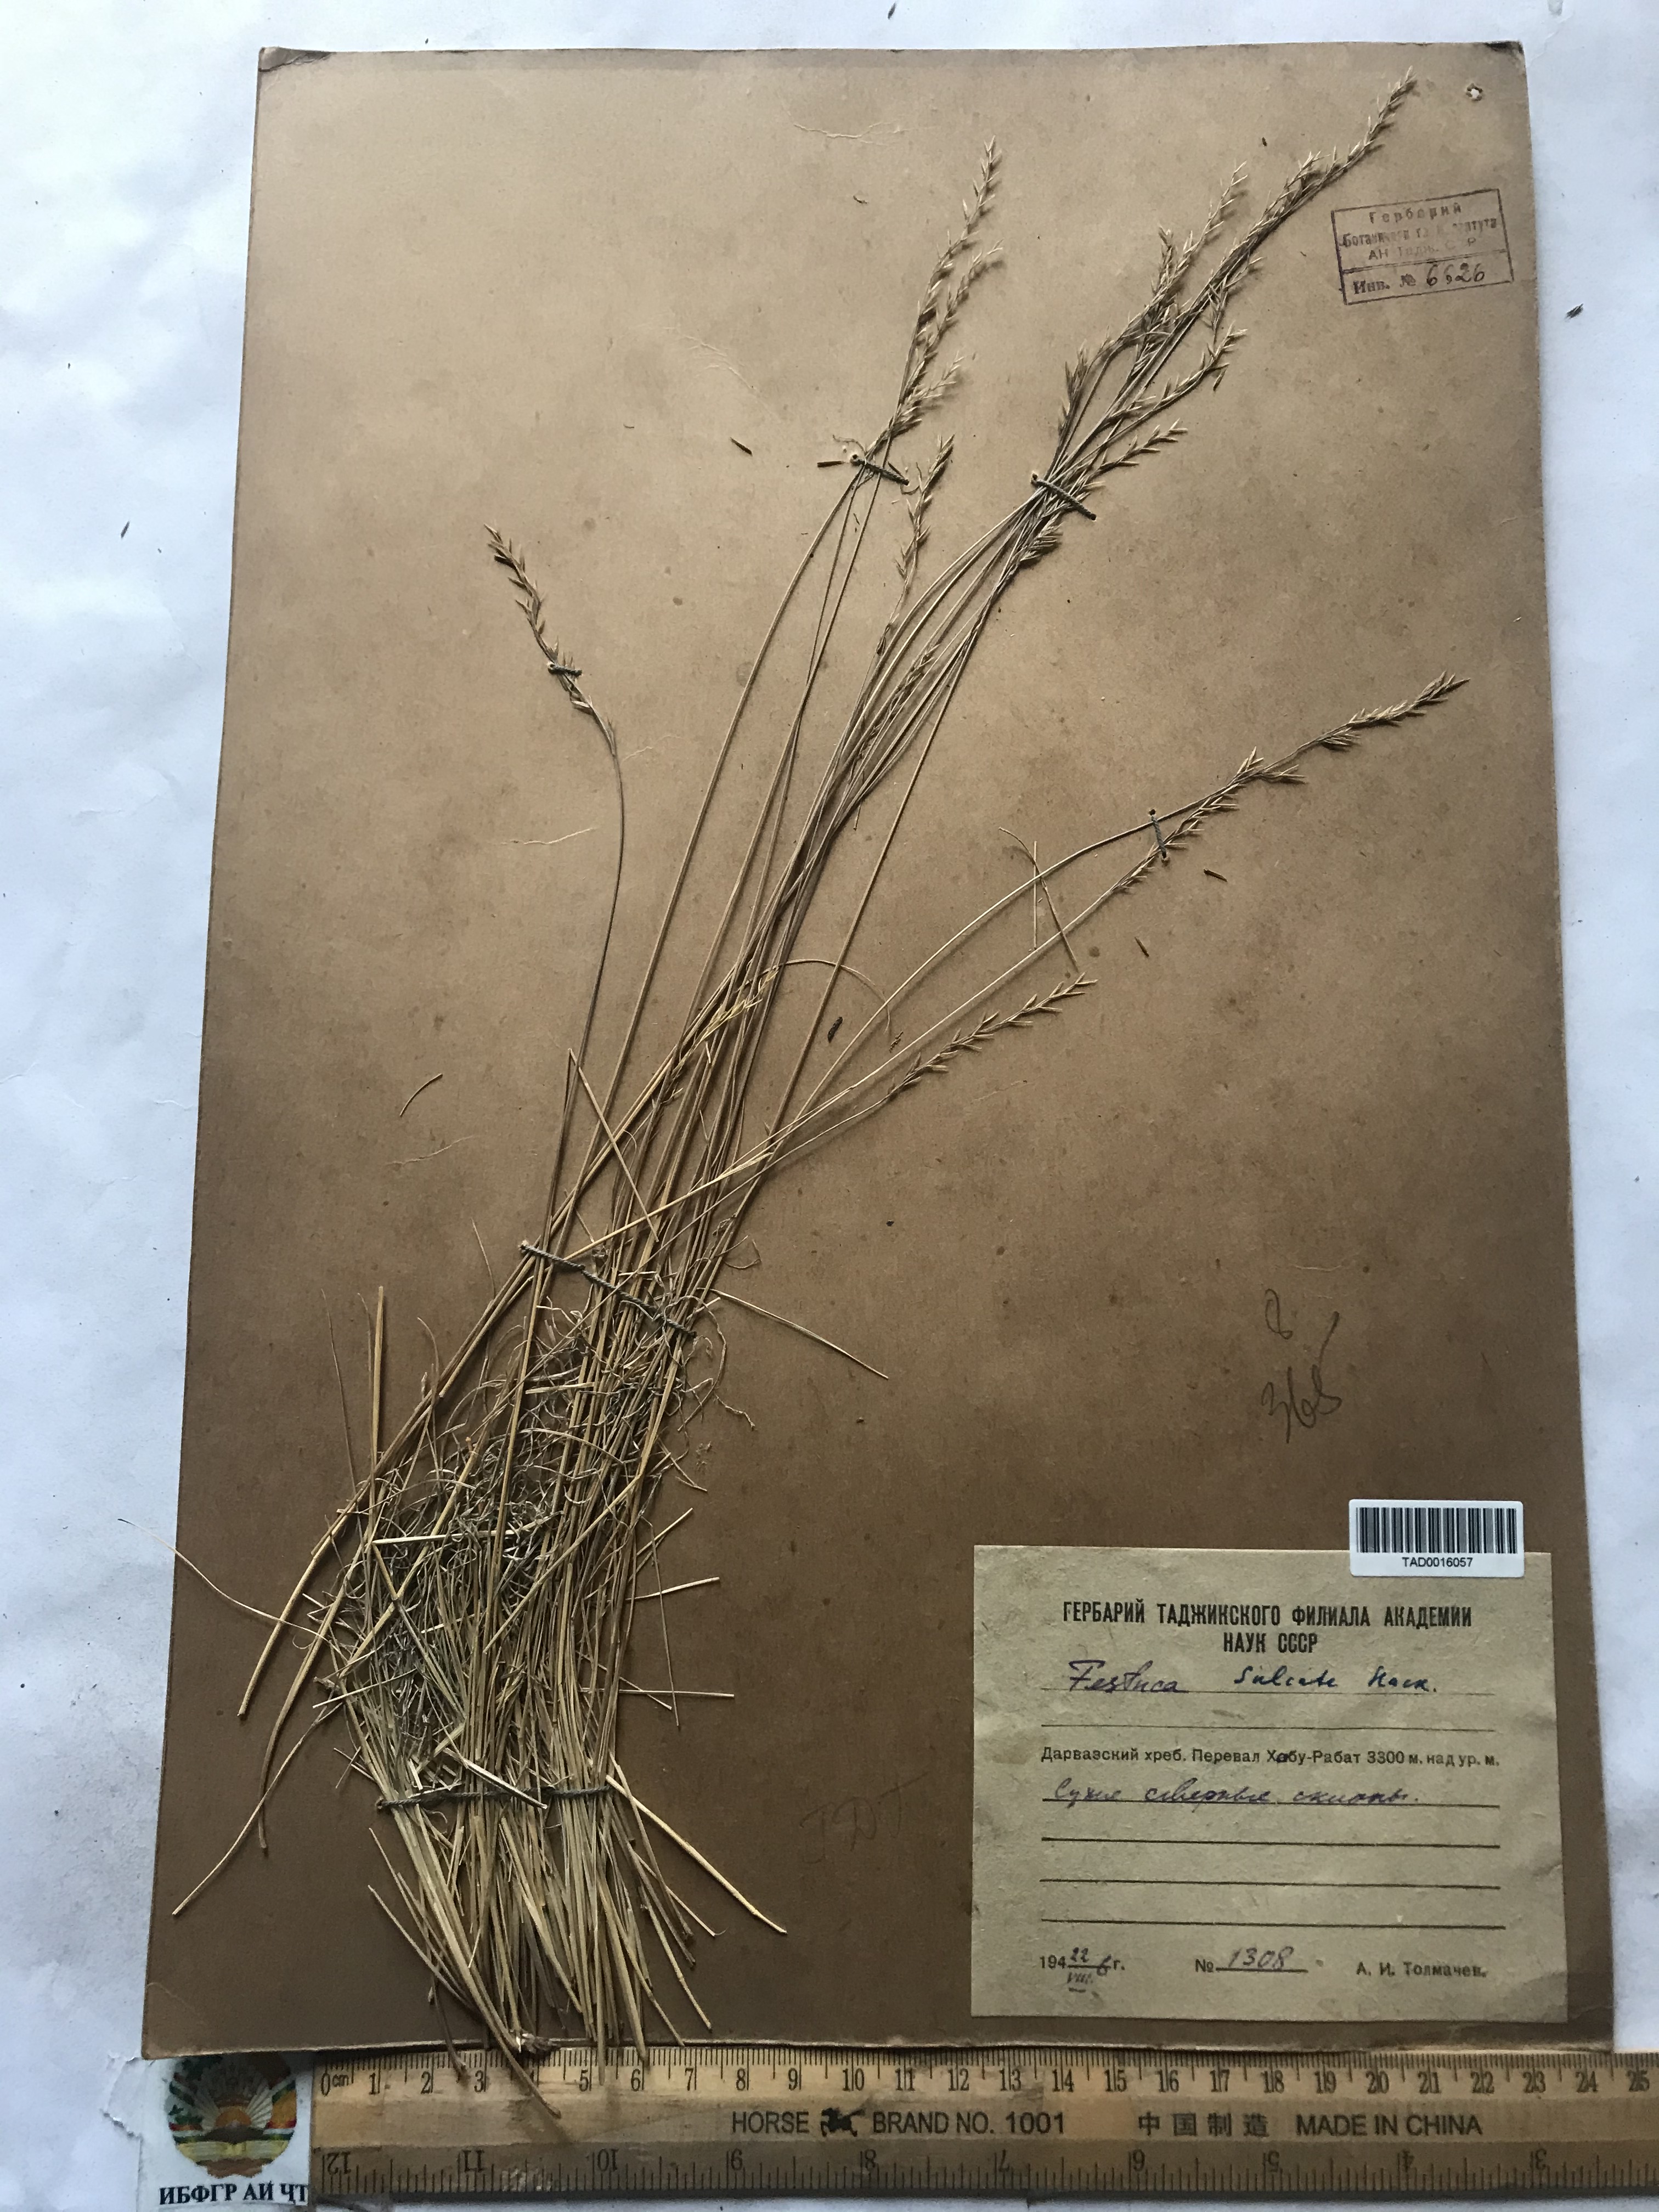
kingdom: Plantae
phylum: Tracheophyta
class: Liliopsida
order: Poales
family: Poaceae
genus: Festuca
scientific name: Festuca sulcata
